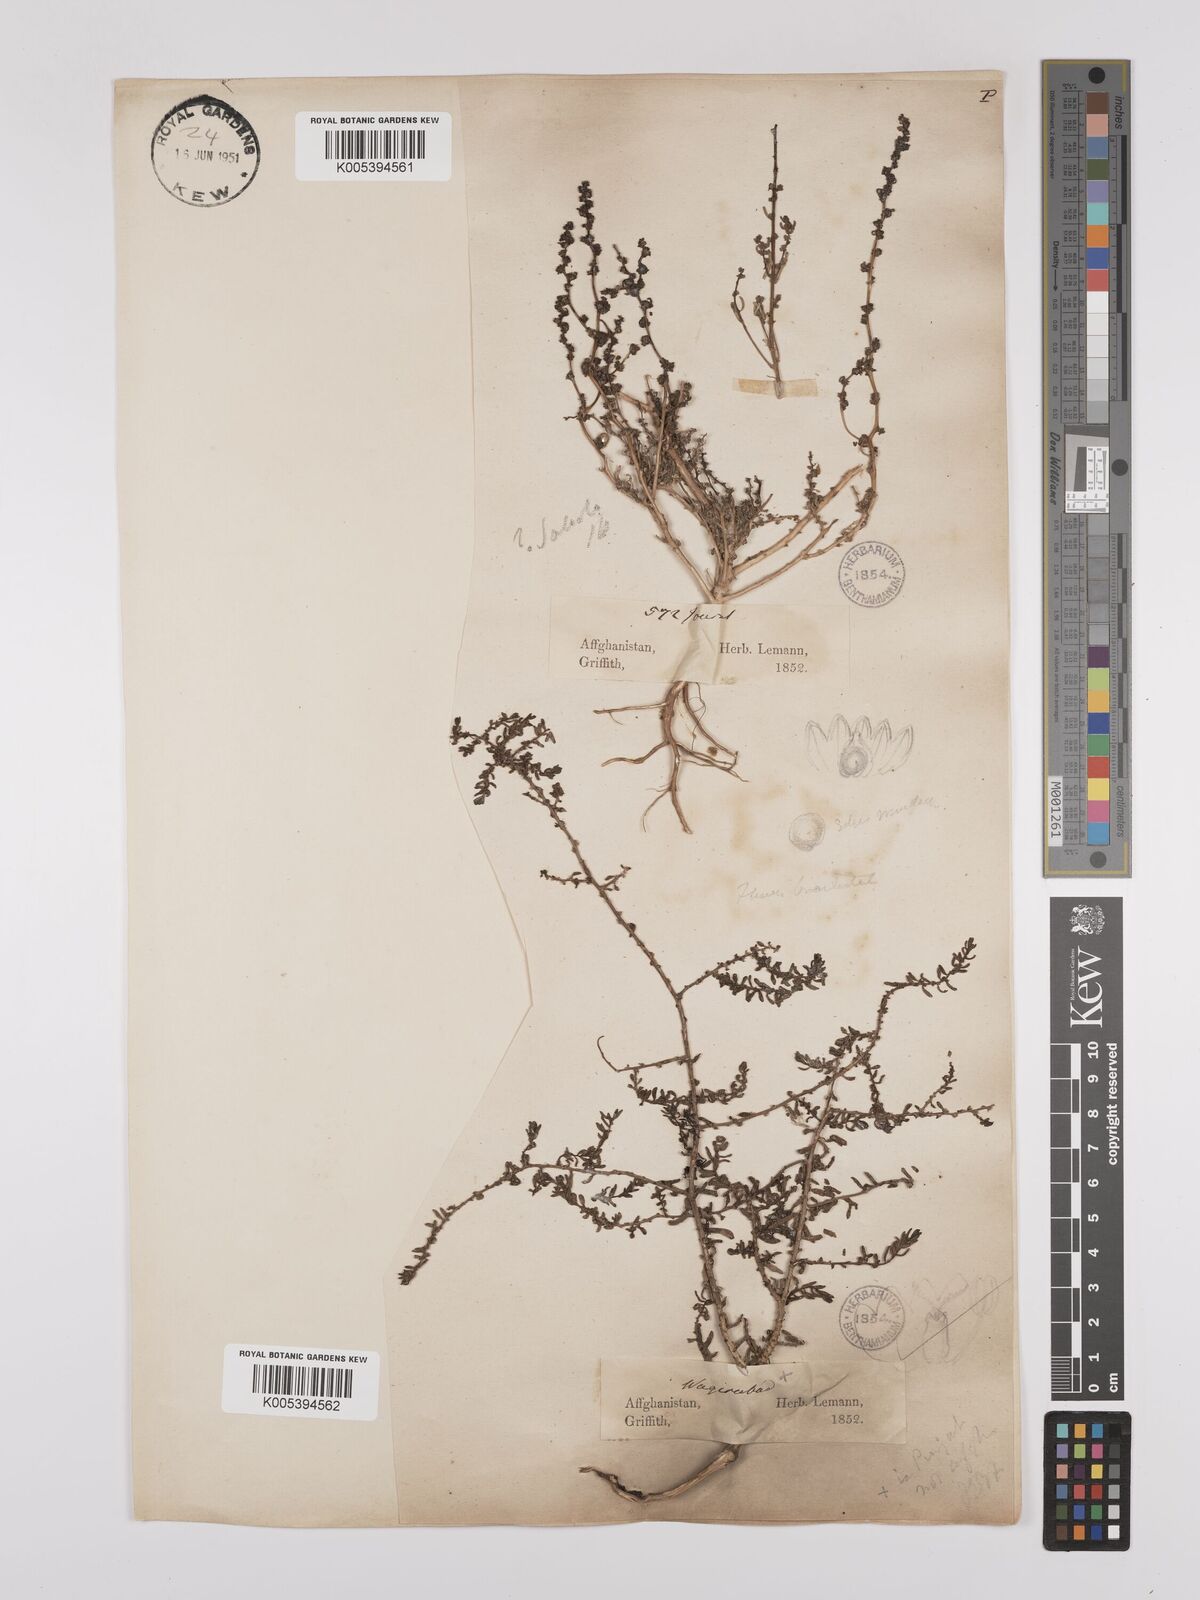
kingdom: Plantae
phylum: Tracheophyta
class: Magnoliopsida
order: Caryophyllales
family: Amaranthaceae
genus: Suaeda
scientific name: Suaeda
